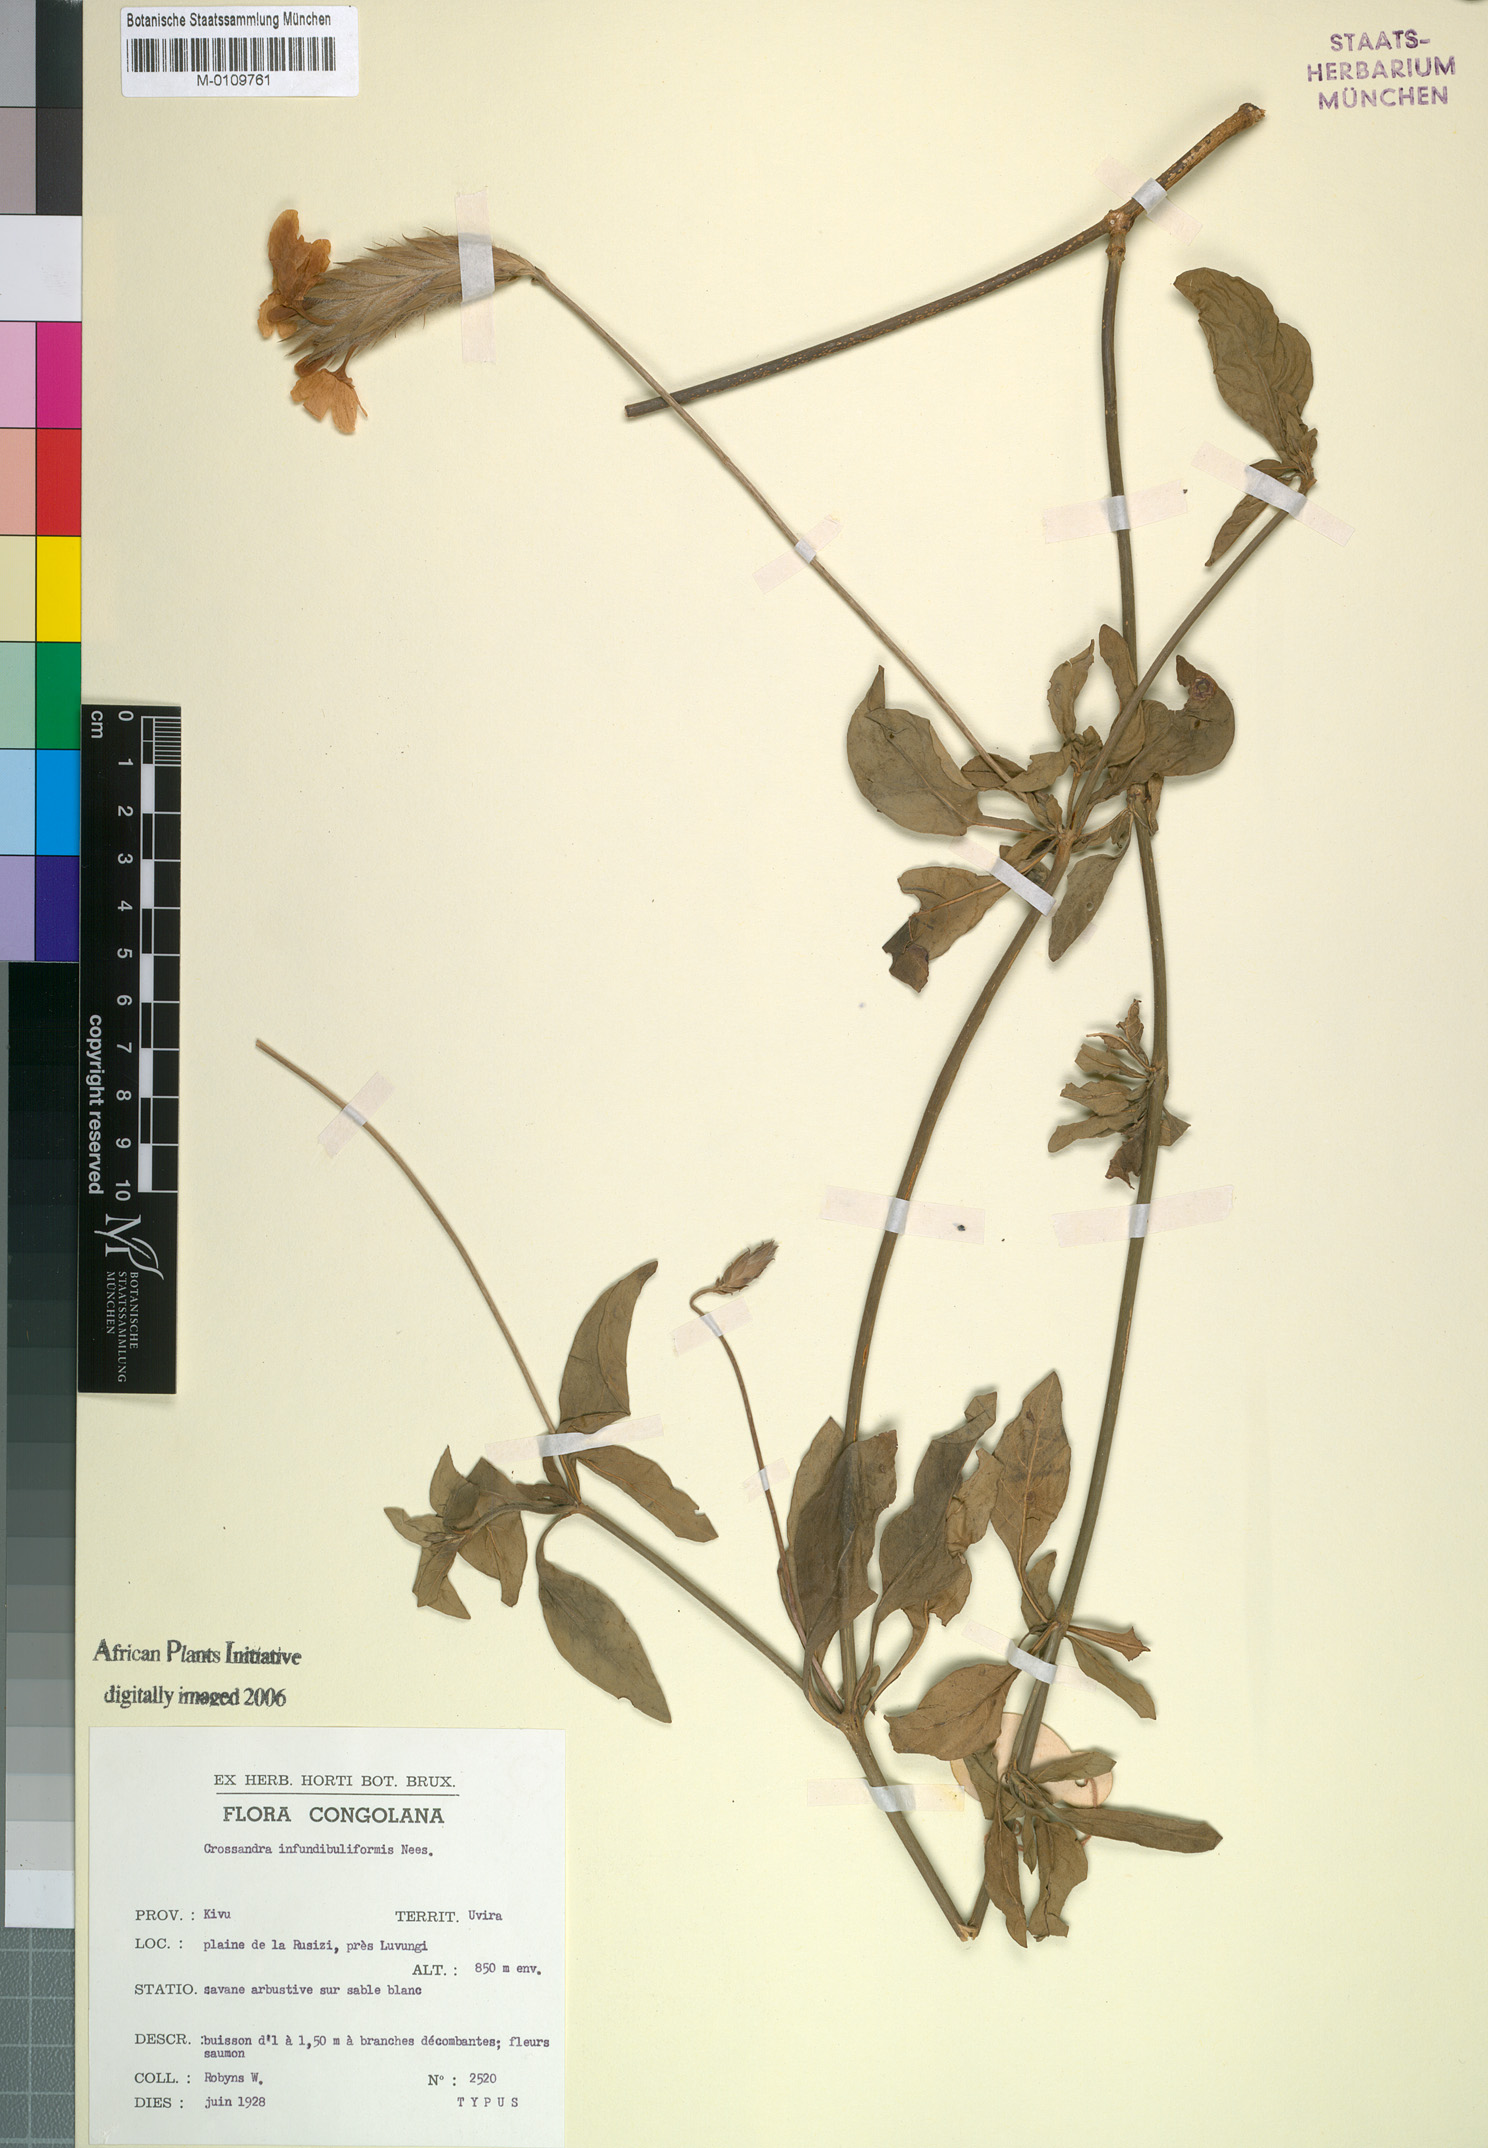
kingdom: Plantae
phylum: Tracheophyta
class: Magnoliopsida
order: Lamiales
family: Acanthaceae
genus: Crossandra
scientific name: Crossandra infundibuliformis
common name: Firecracker-flower
